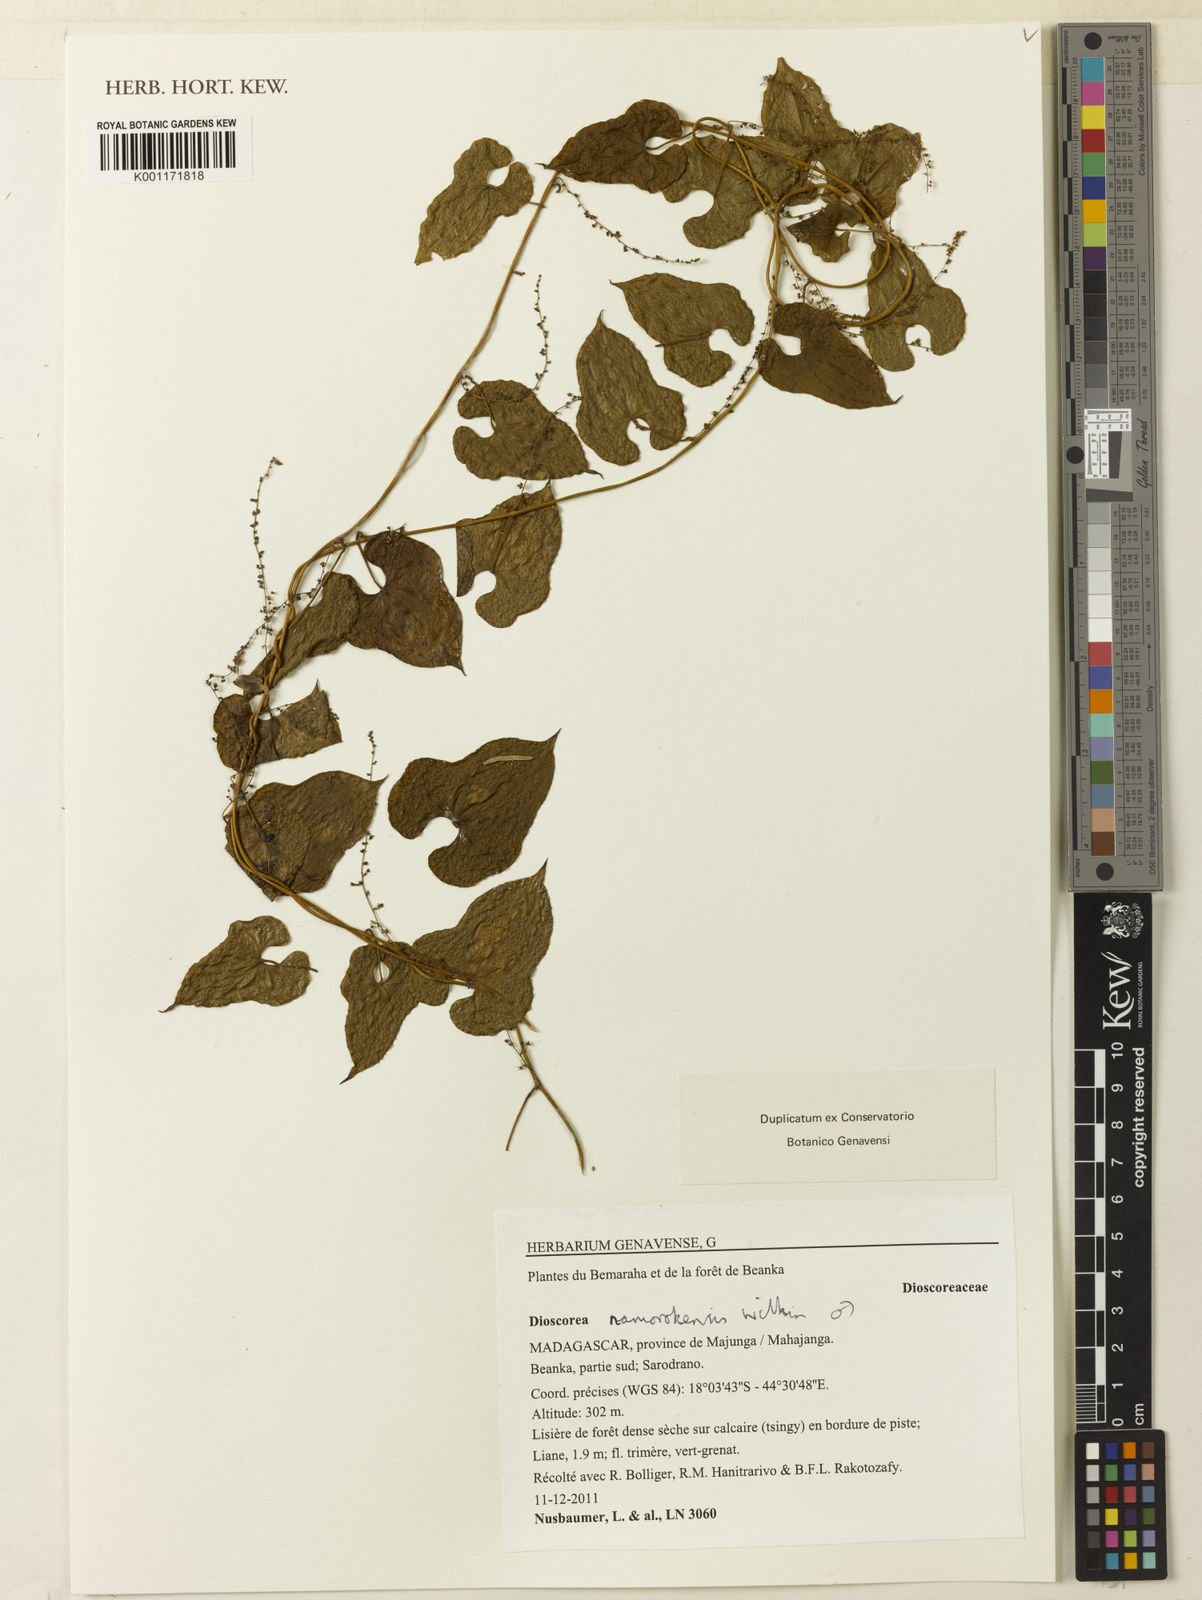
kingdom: Plantae
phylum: Tracheophyta
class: Liliopsida
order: Dioscoreales
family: Dioscoreaceae
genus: Dioscorea
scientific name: Dioscorea namorokensis
